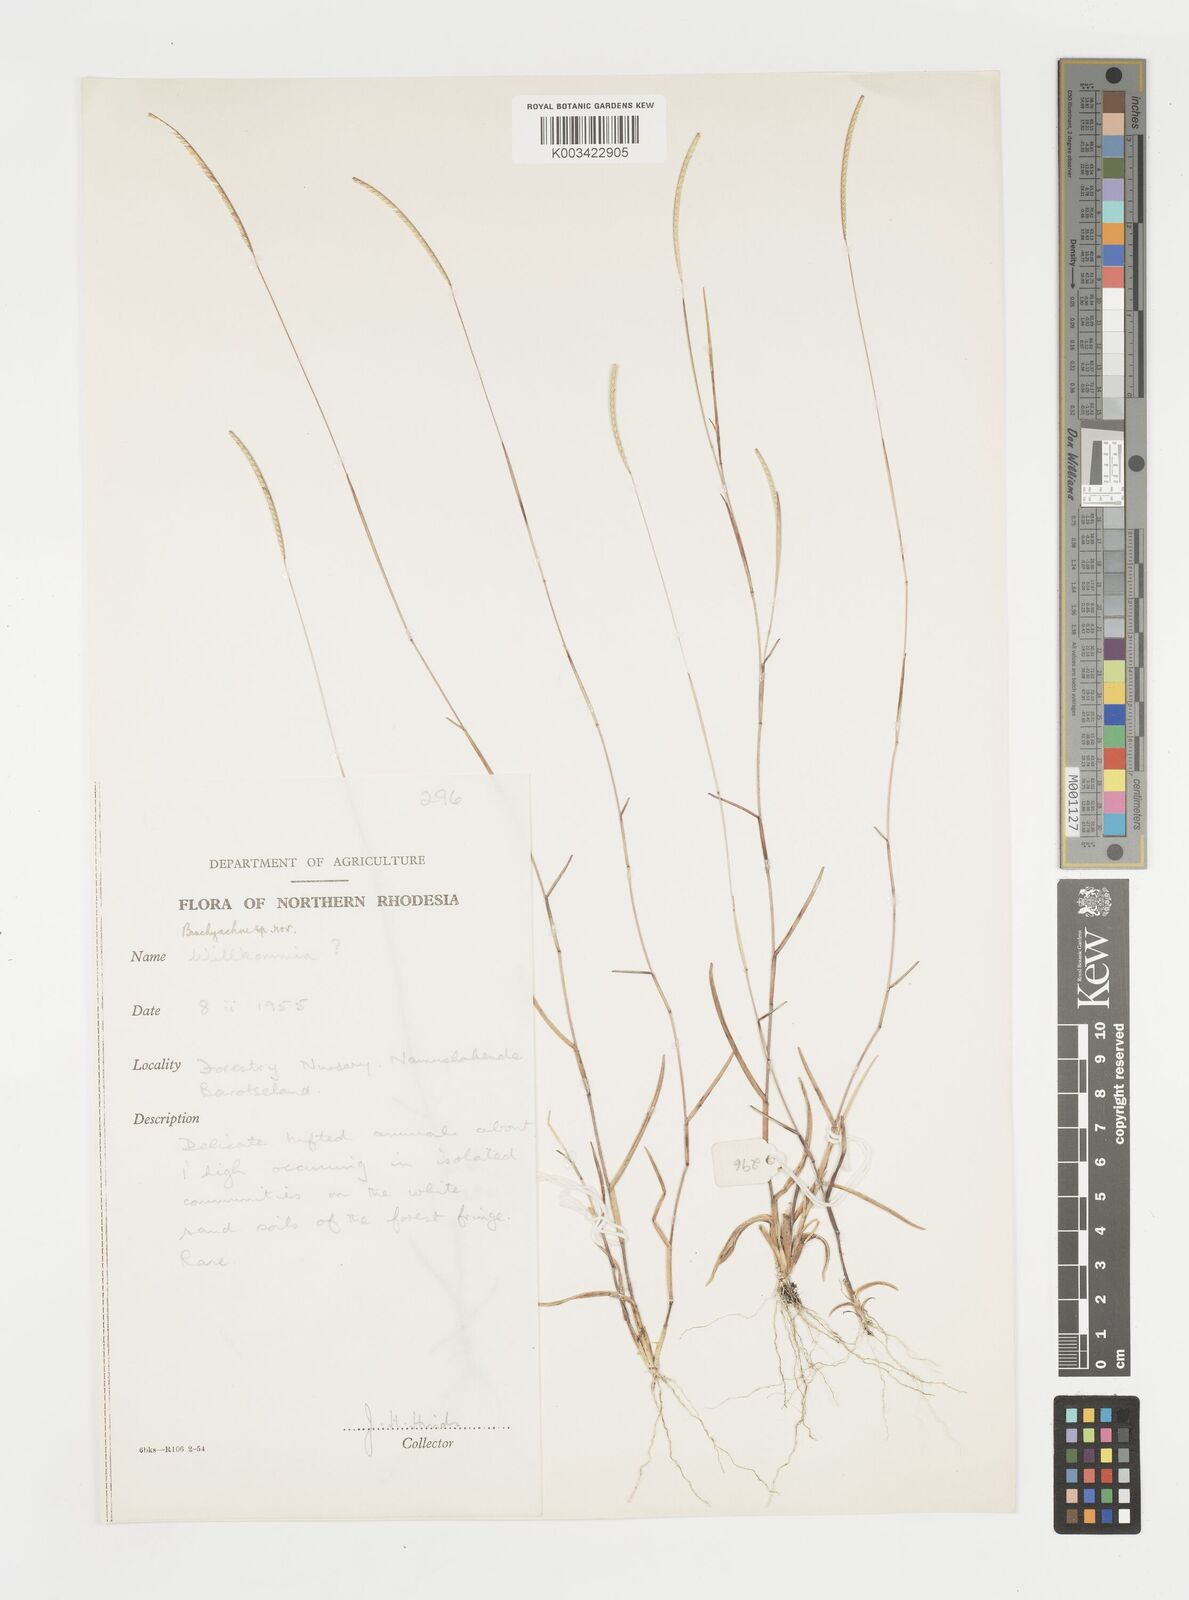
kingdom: Plantae
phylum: Tracheophyta
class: Liliopsida
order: Poales
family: Poaceae
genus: Microchloa
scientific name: Microchloa annua
